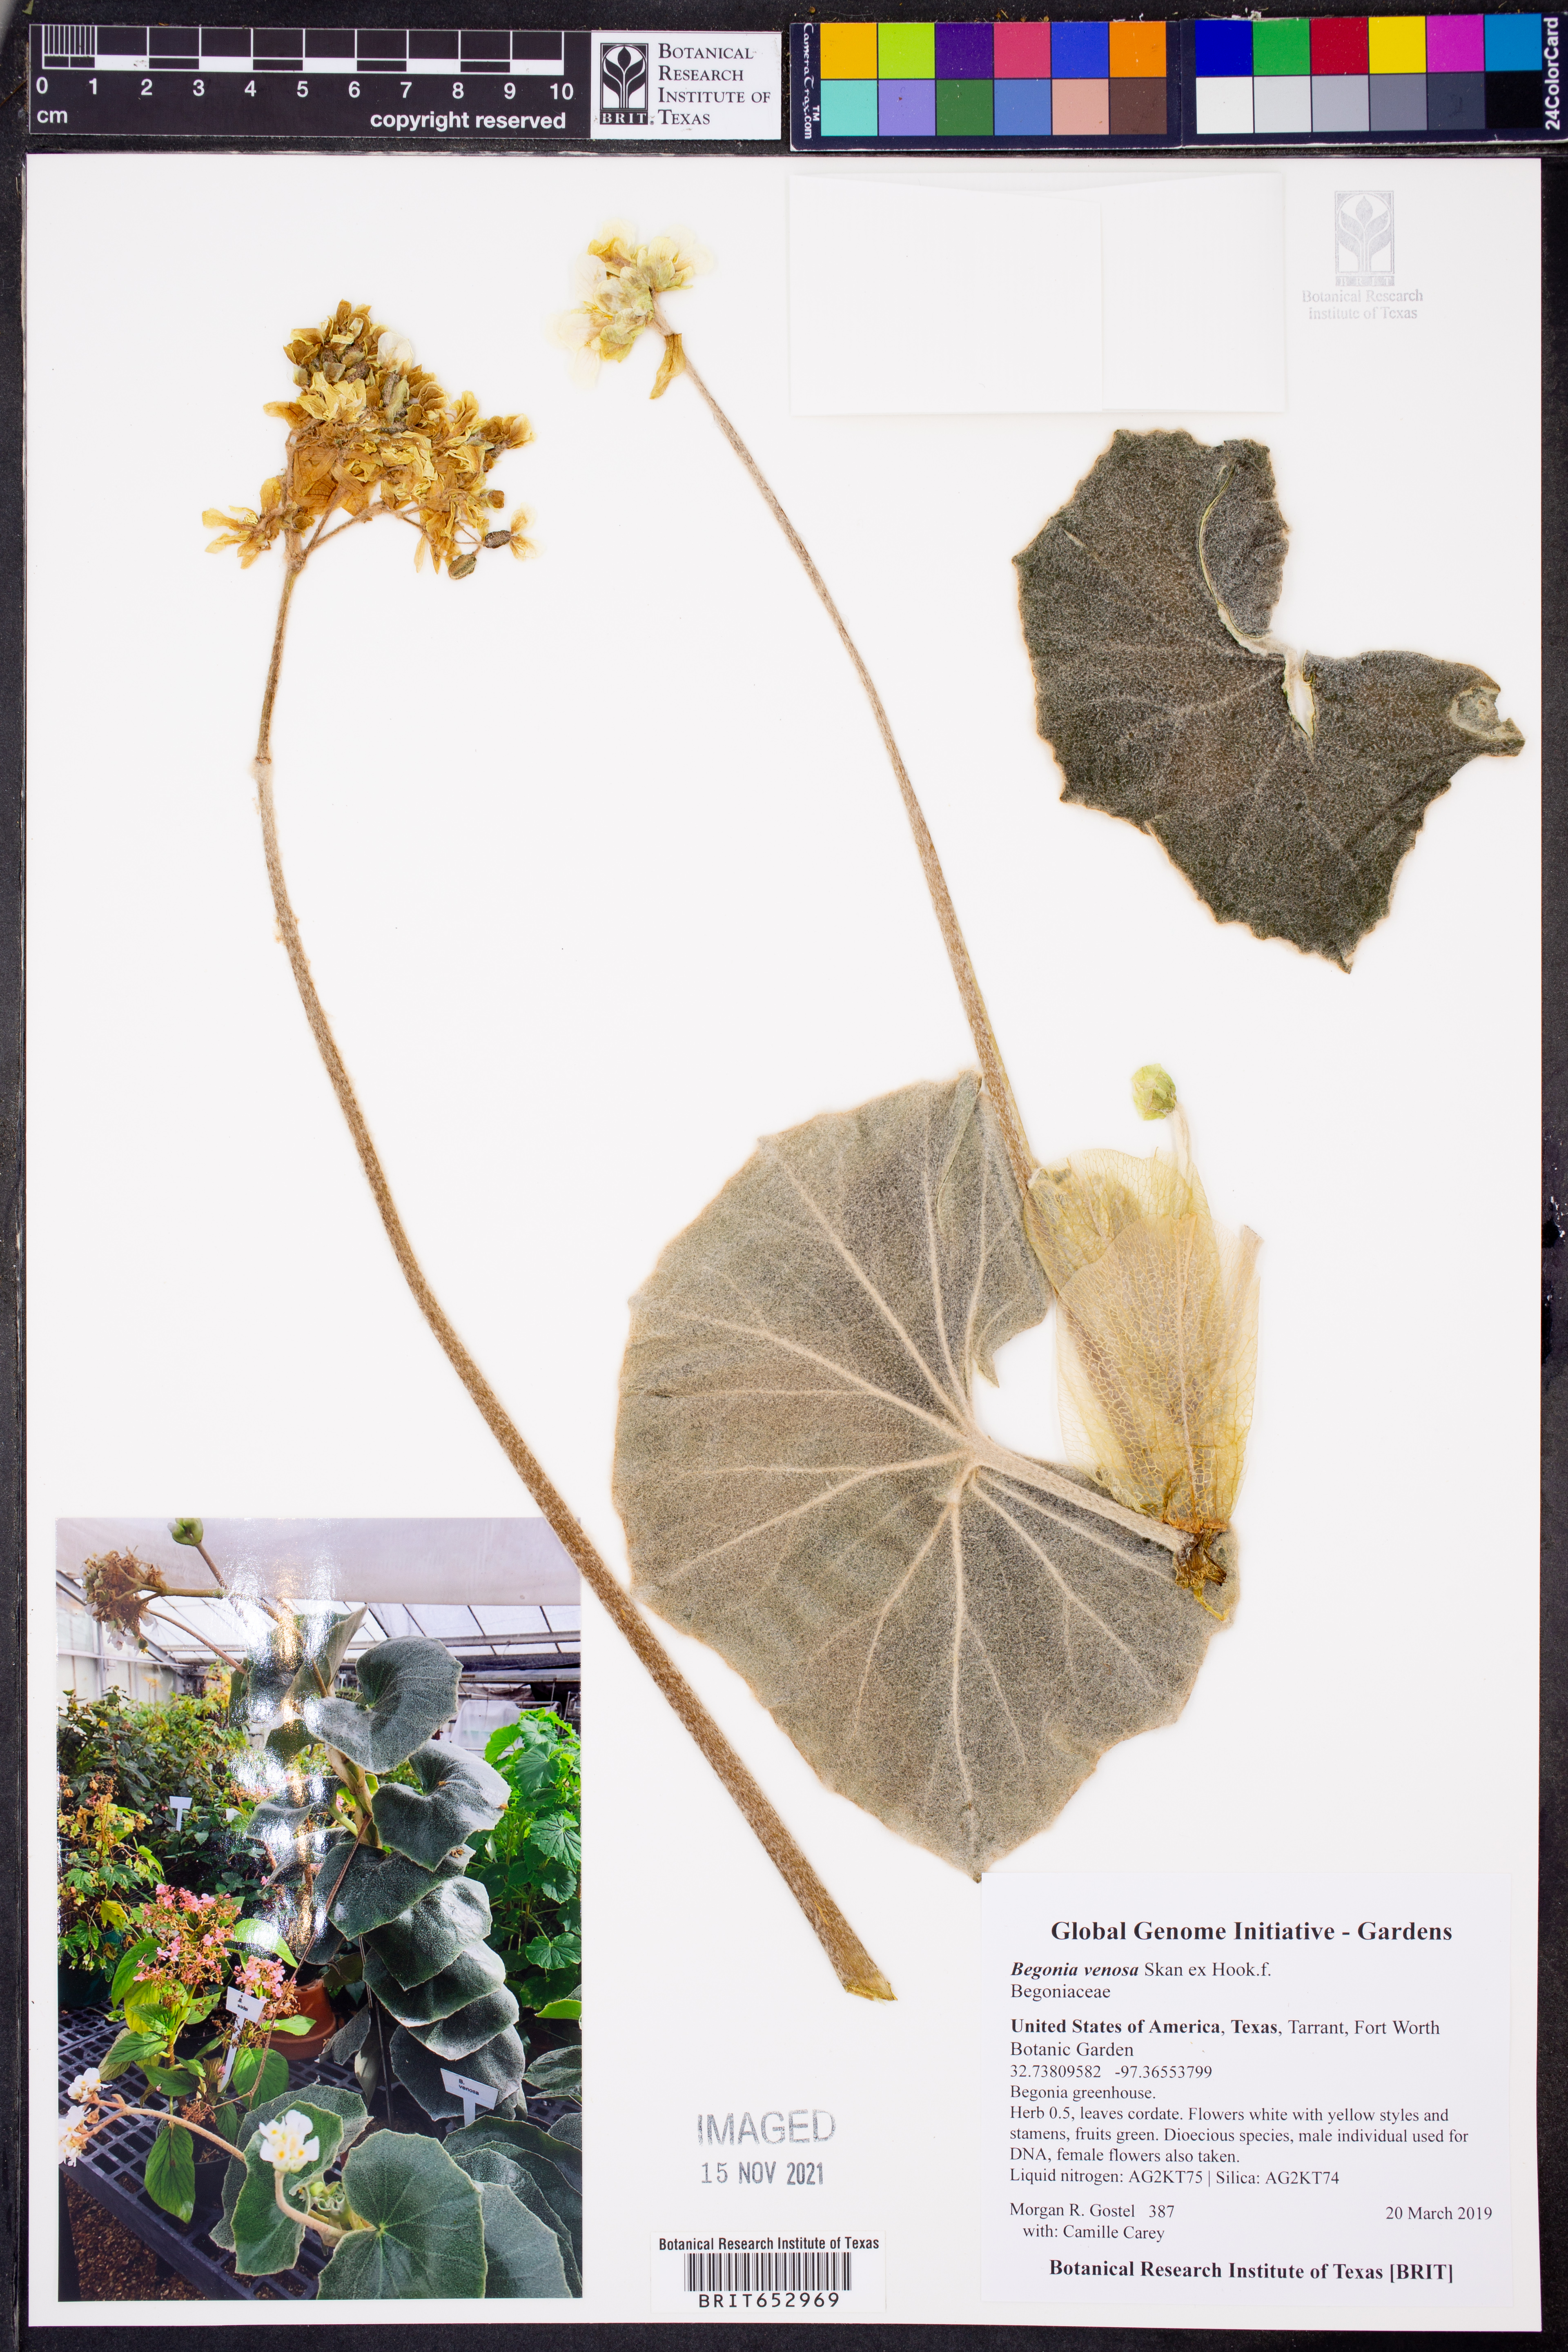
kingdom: Plantae
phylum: Tracheophyta
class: Magnoliopsida
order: Cucurbitales
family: Begoniaceae
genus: Begonia
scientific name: Begonia venosa
